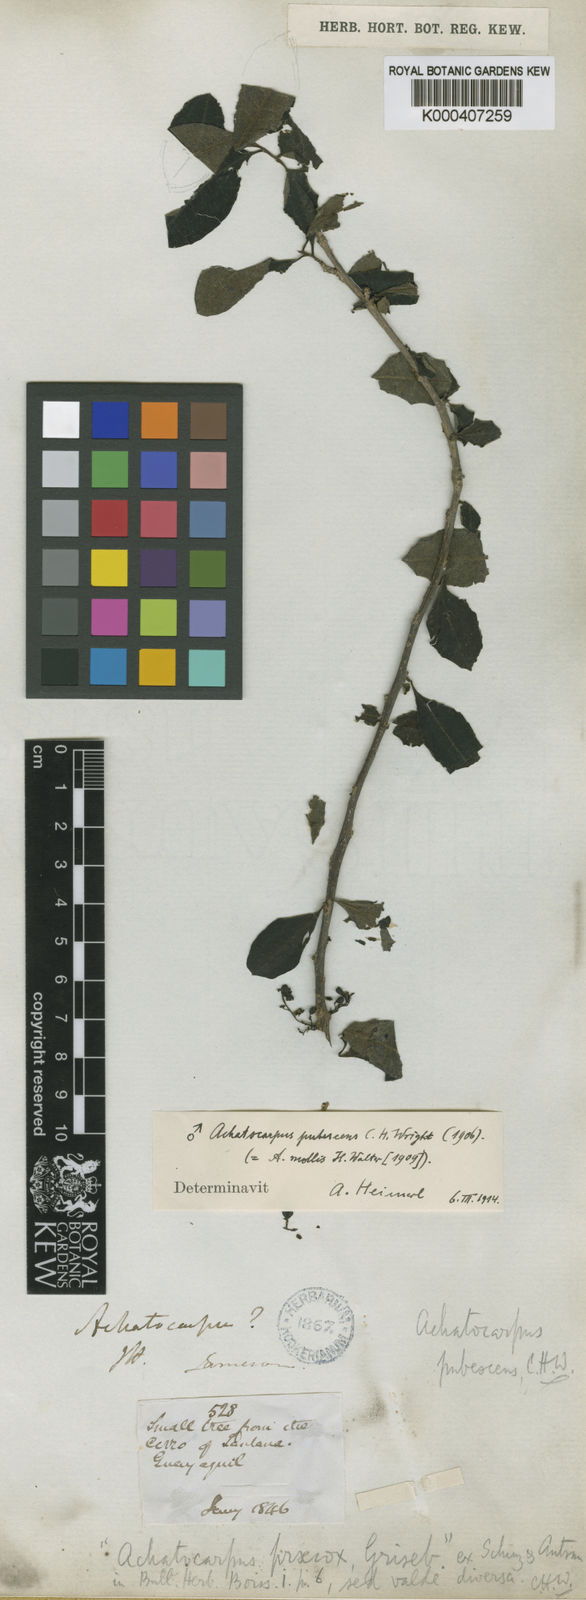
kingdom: Plantae
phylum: Tracheophyta
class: Magnoliopsida
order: Caryophyllales
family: Achatocarpaceae
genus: Achatocarpus
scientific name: Achatocarpus pubescens
